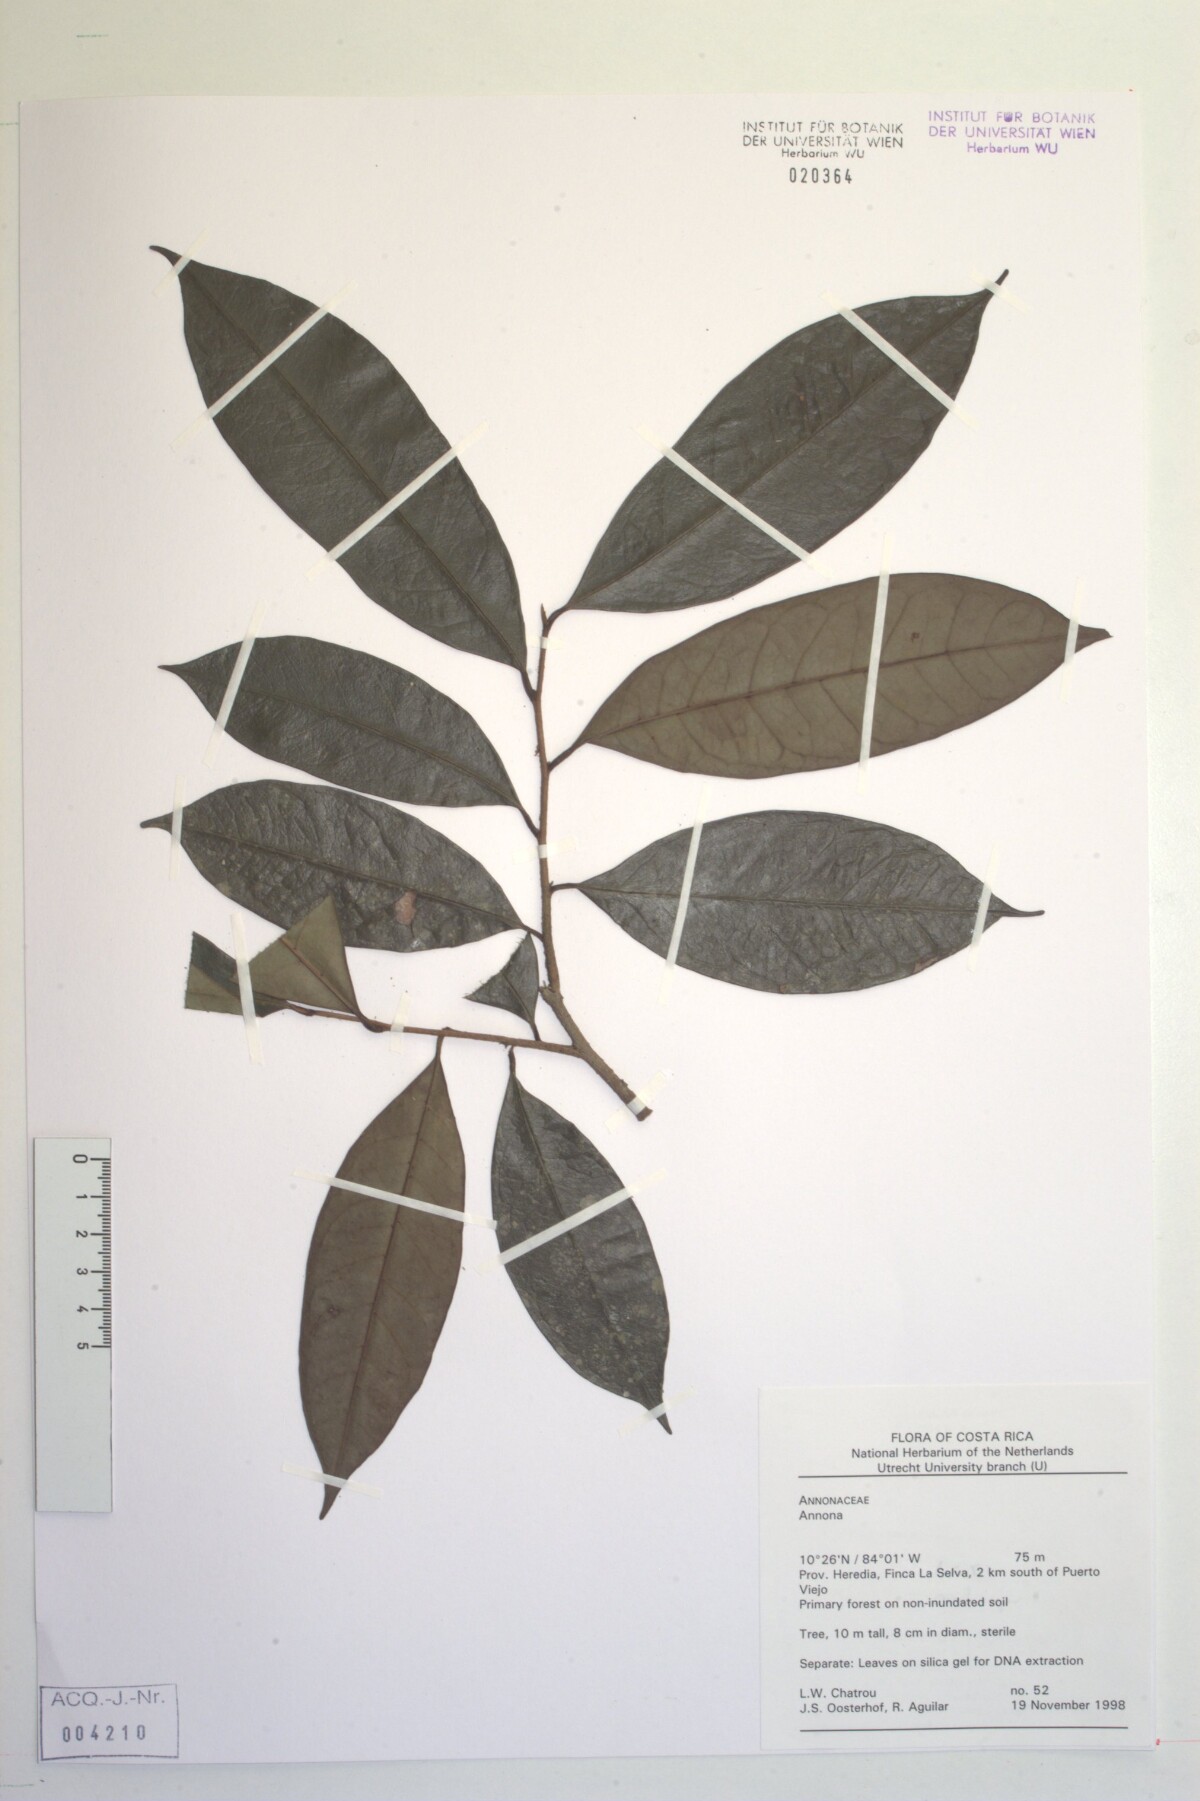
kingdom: Plantae
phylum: Tracheophyta
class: Magnoliopsida
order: Magnoliales
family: Annonaceae
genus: Annona
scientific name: Annona
